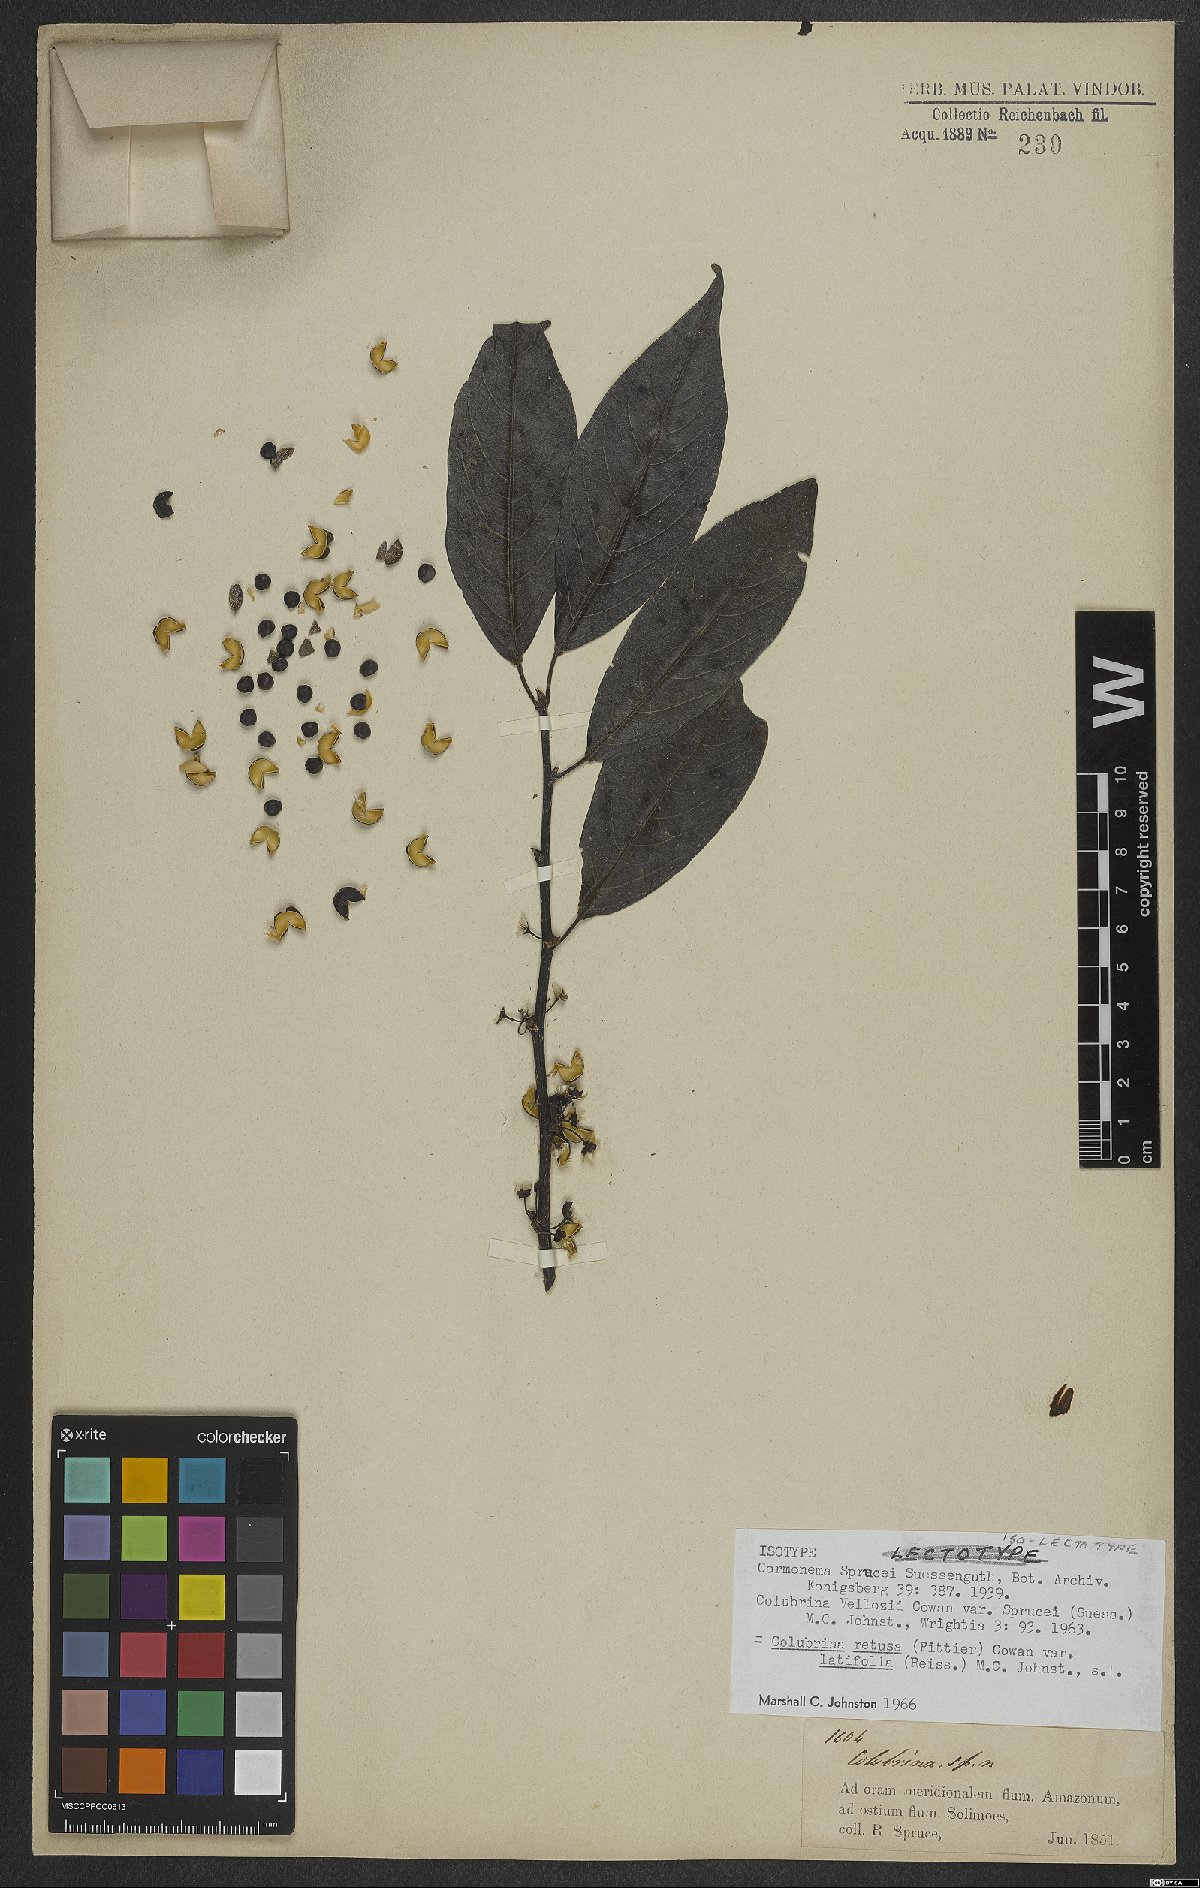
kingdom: Plantae
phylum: Tracheophyta
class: Magnoliopsida
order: Rosales
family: Rhamnaceae
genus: Colubrina
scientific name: Colubrina retusa
